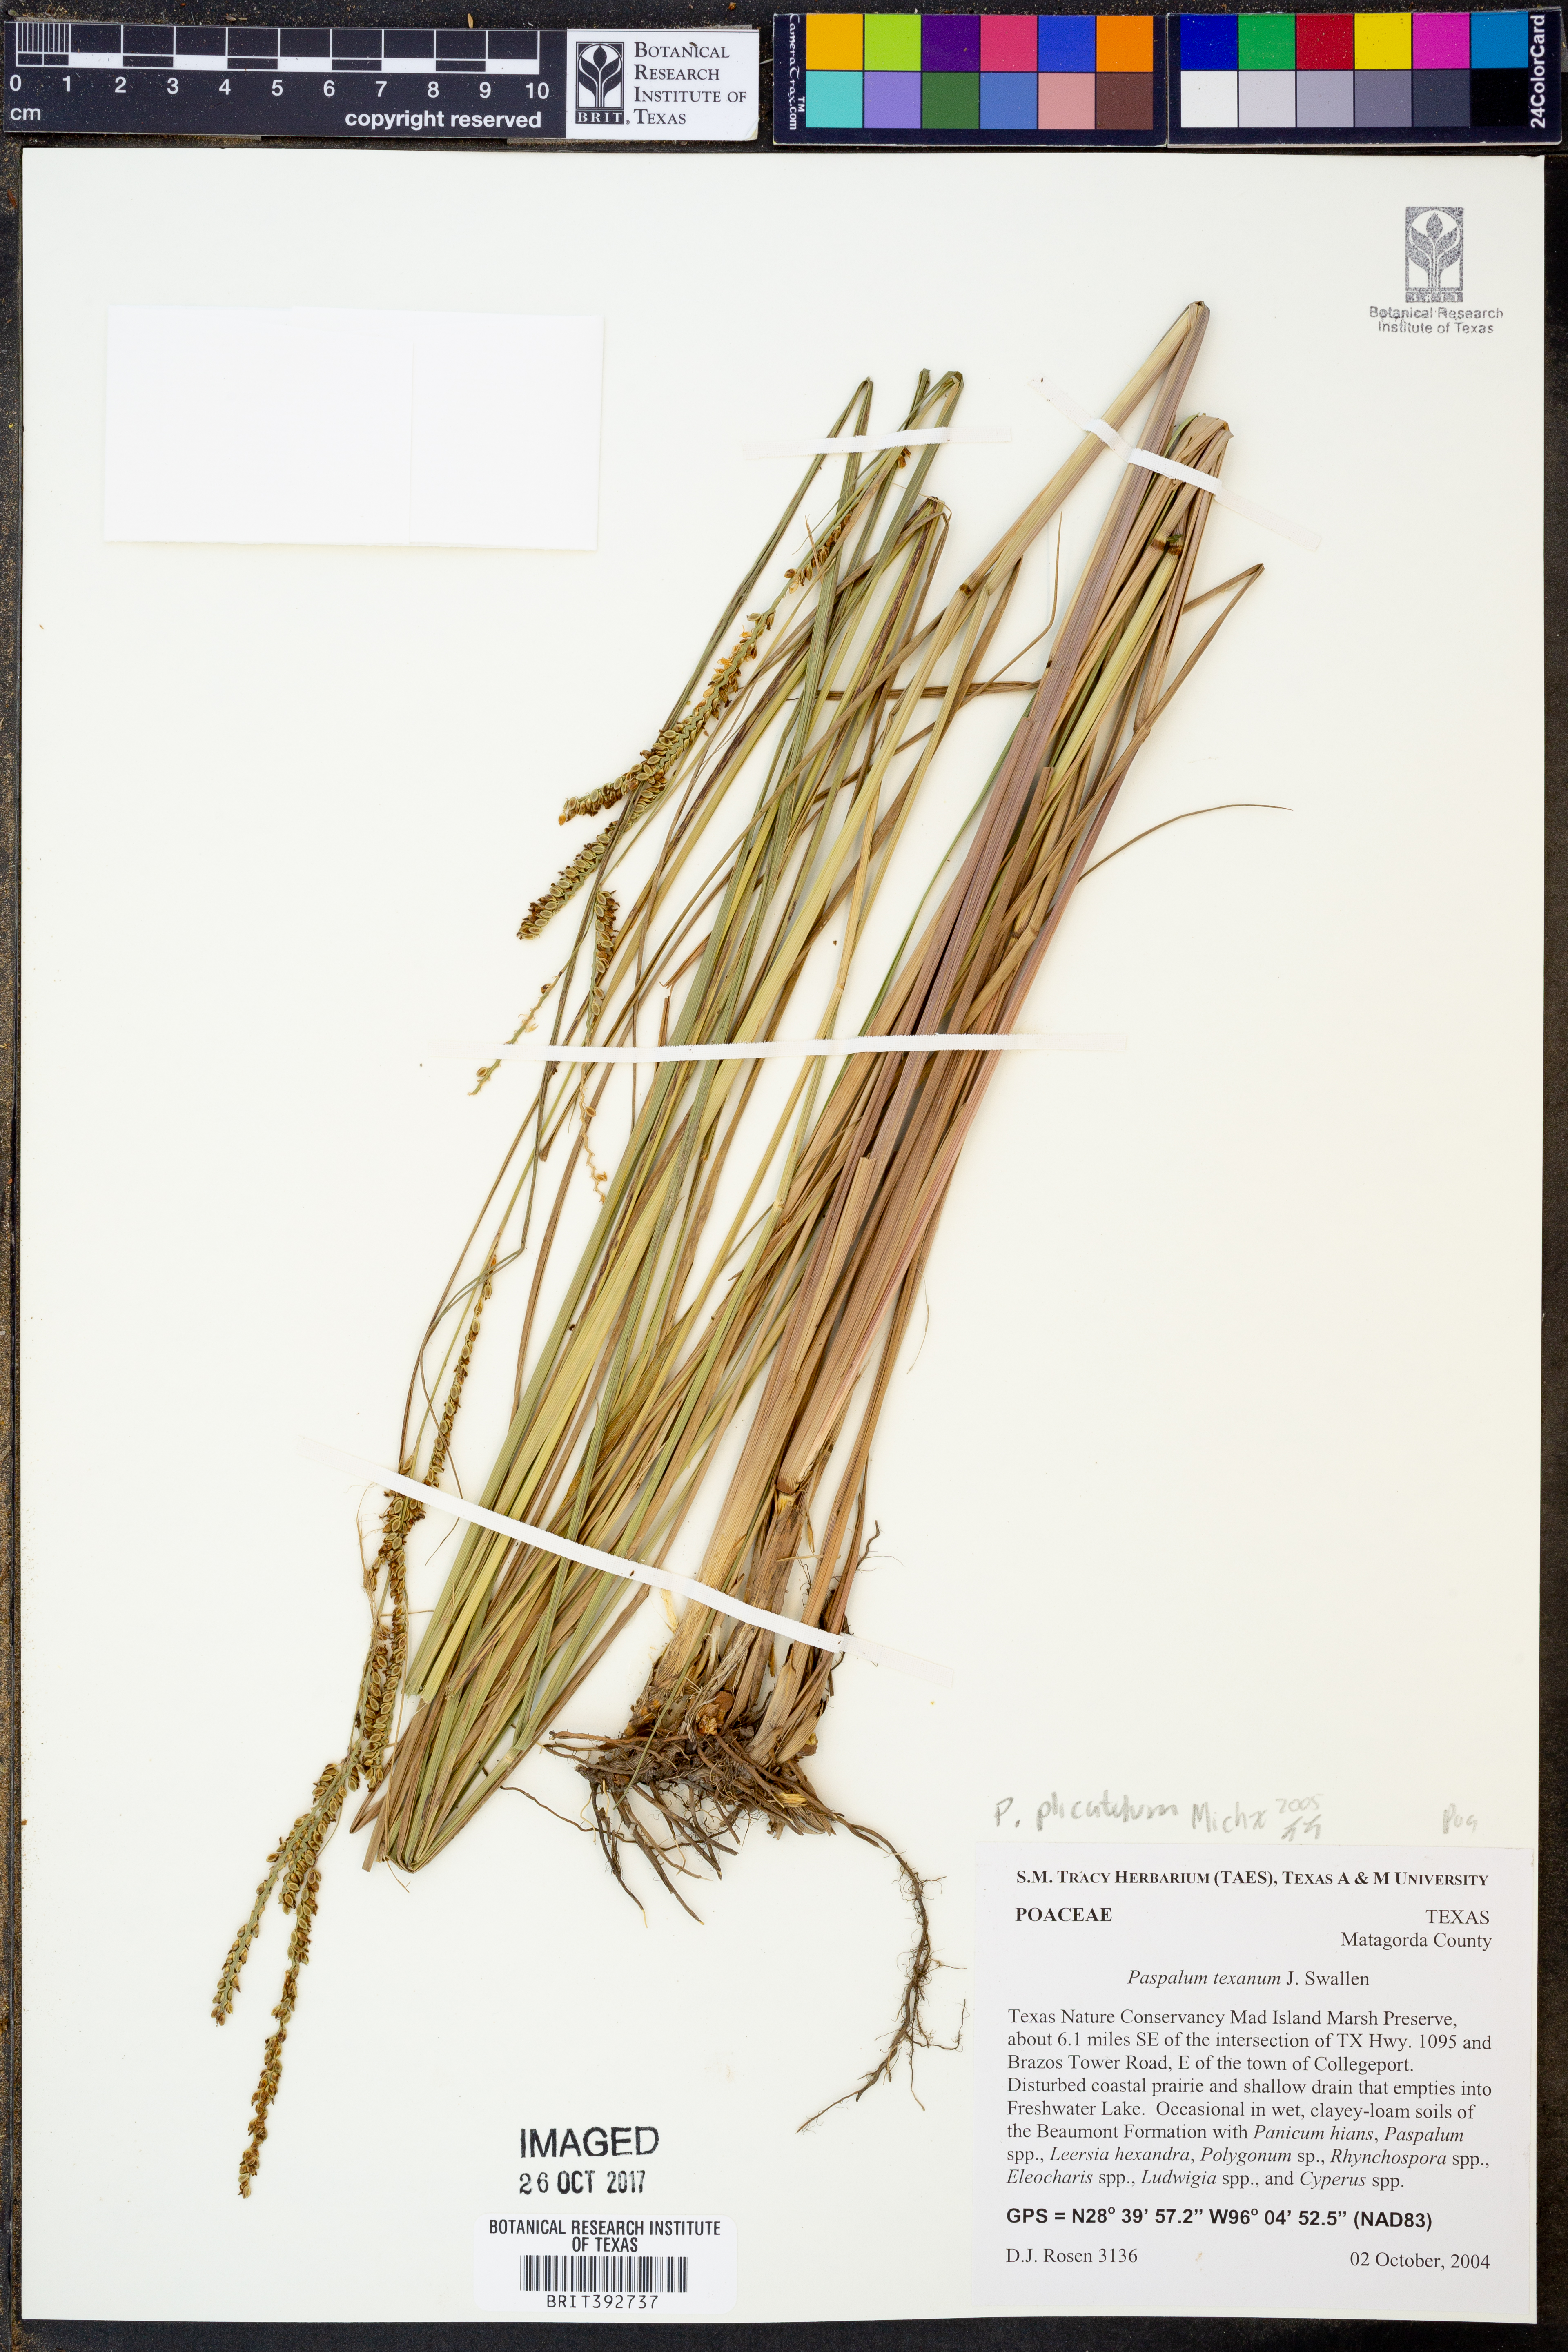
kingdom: Plantae
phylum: Tracheophyta
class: Liliopsida
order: Poales
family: Poaceae
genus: Paspalum
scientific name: Paspalum plicatulum
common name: Top paspalum
